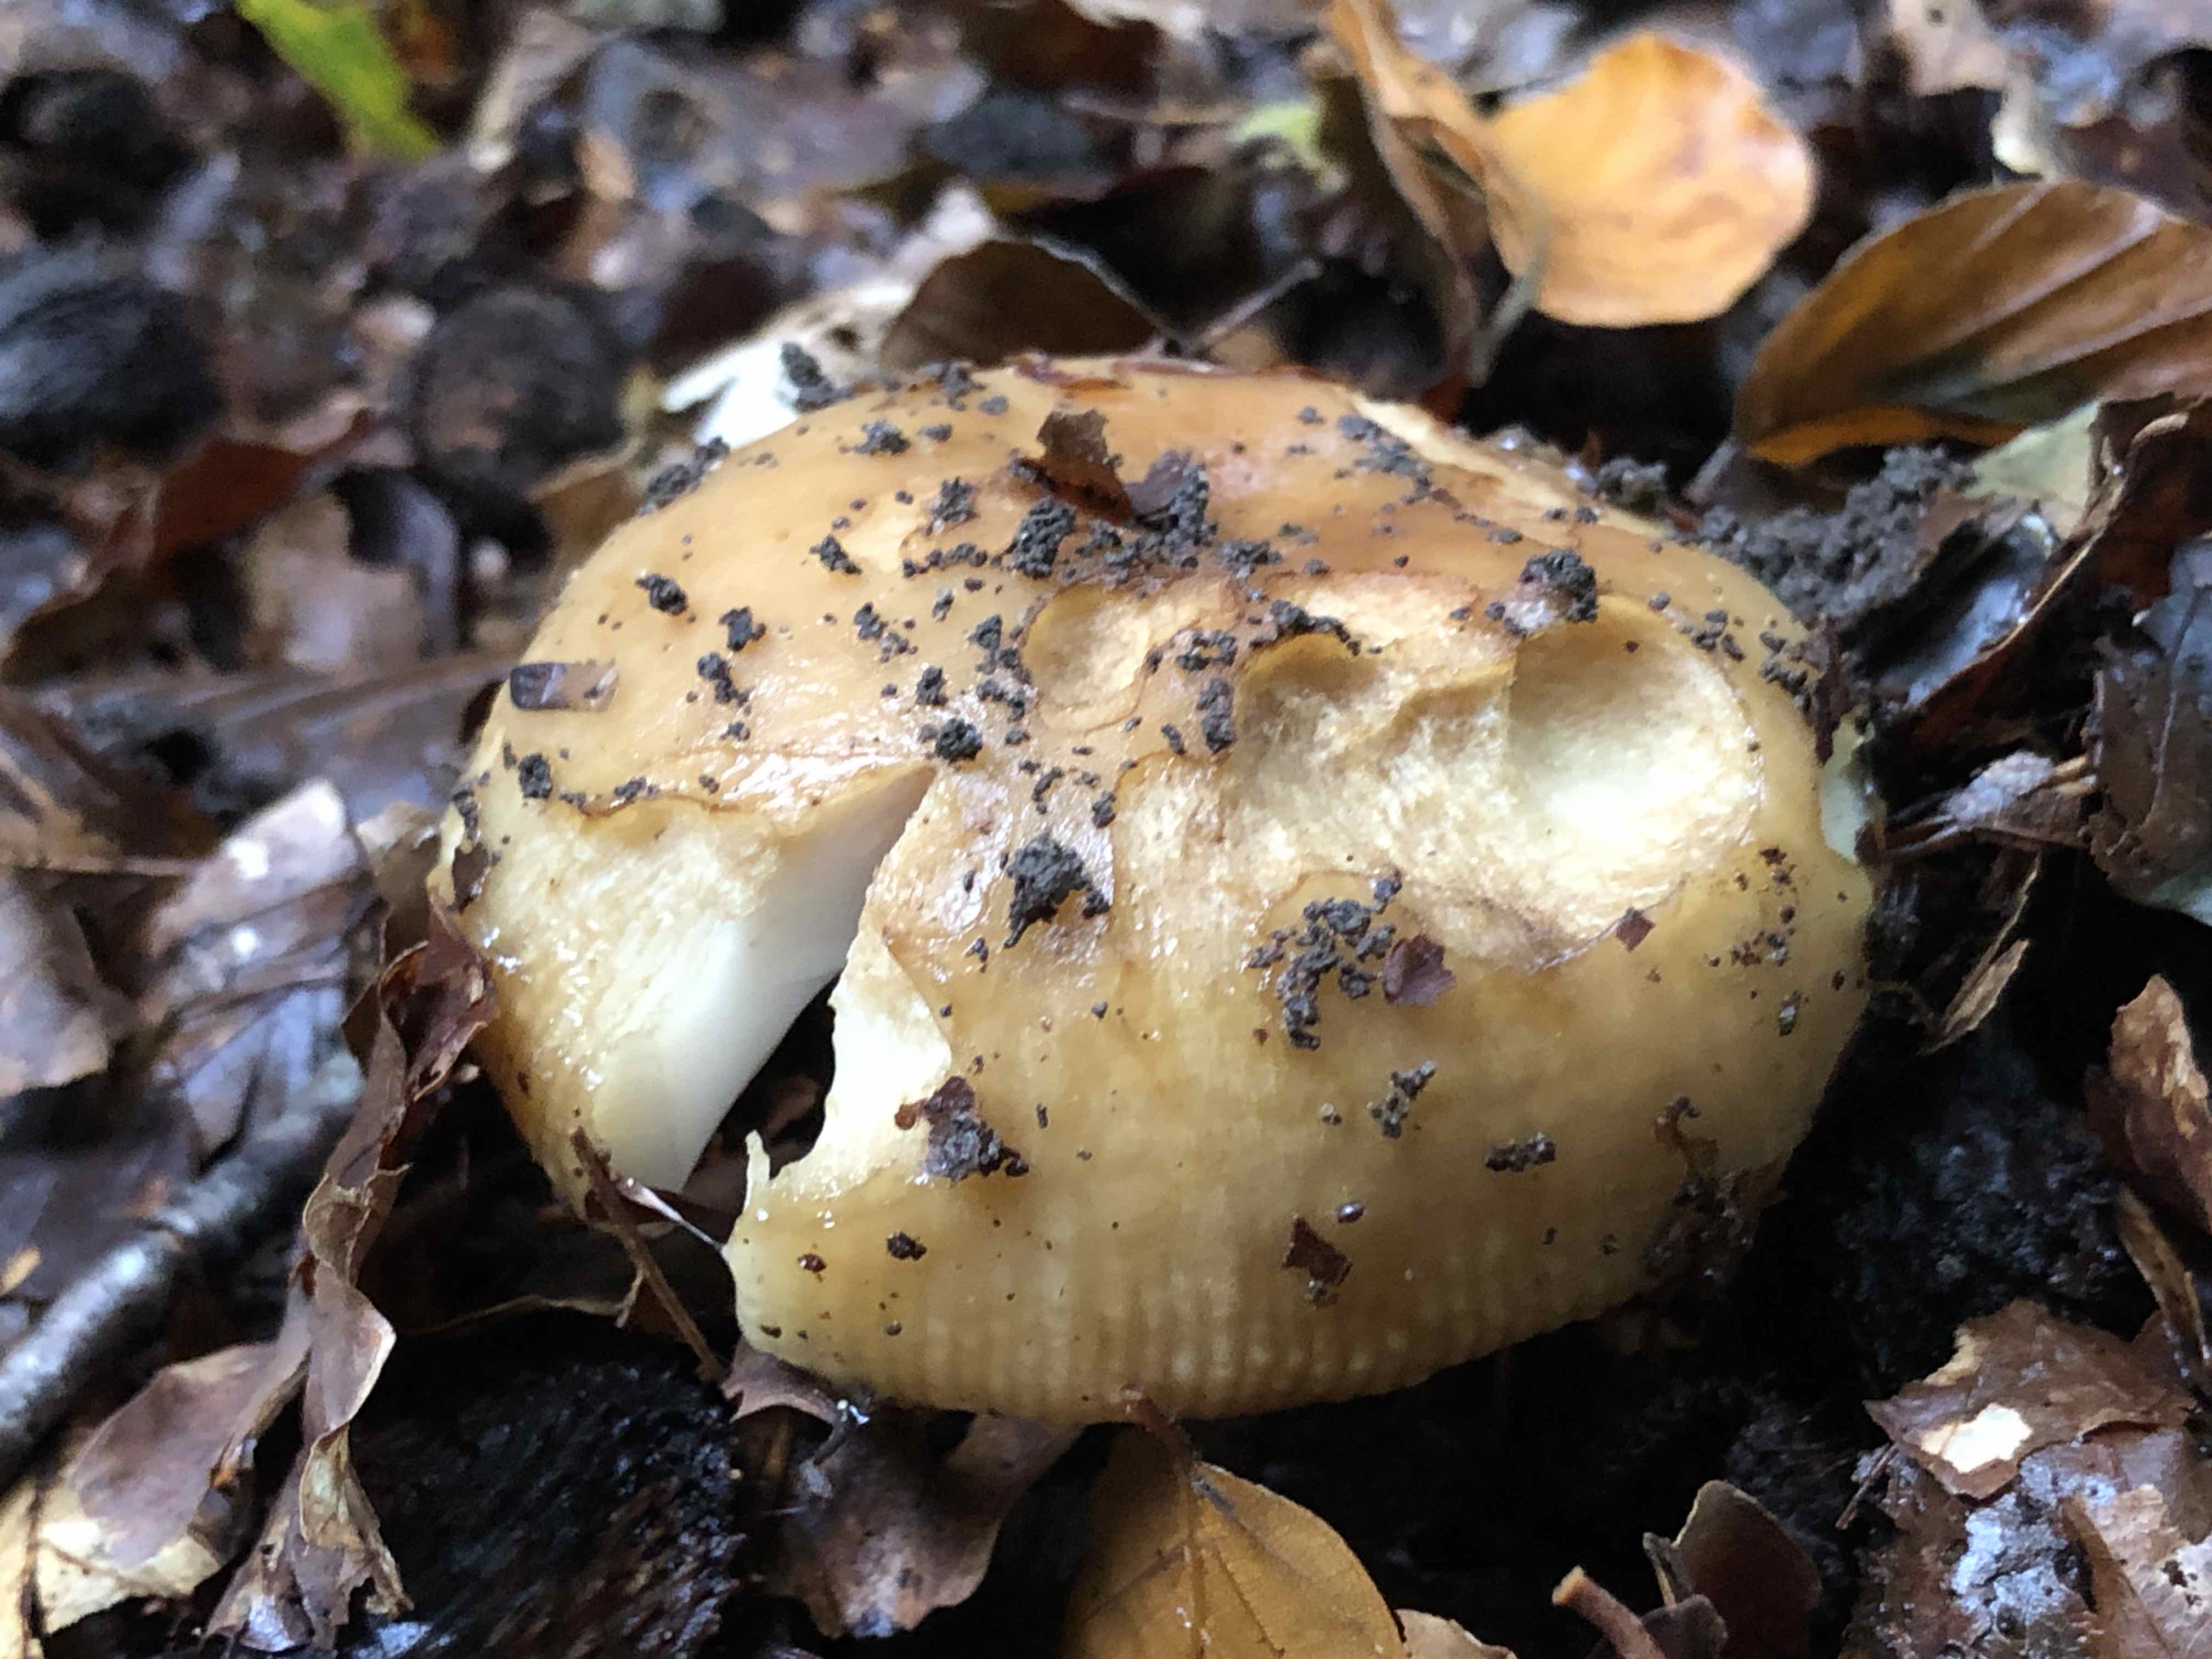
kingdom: Fungi
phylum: Basidiomycota
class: Agaricomycetes
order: Russulales
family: Russulaceae
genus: Russula
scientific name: Russula grata
